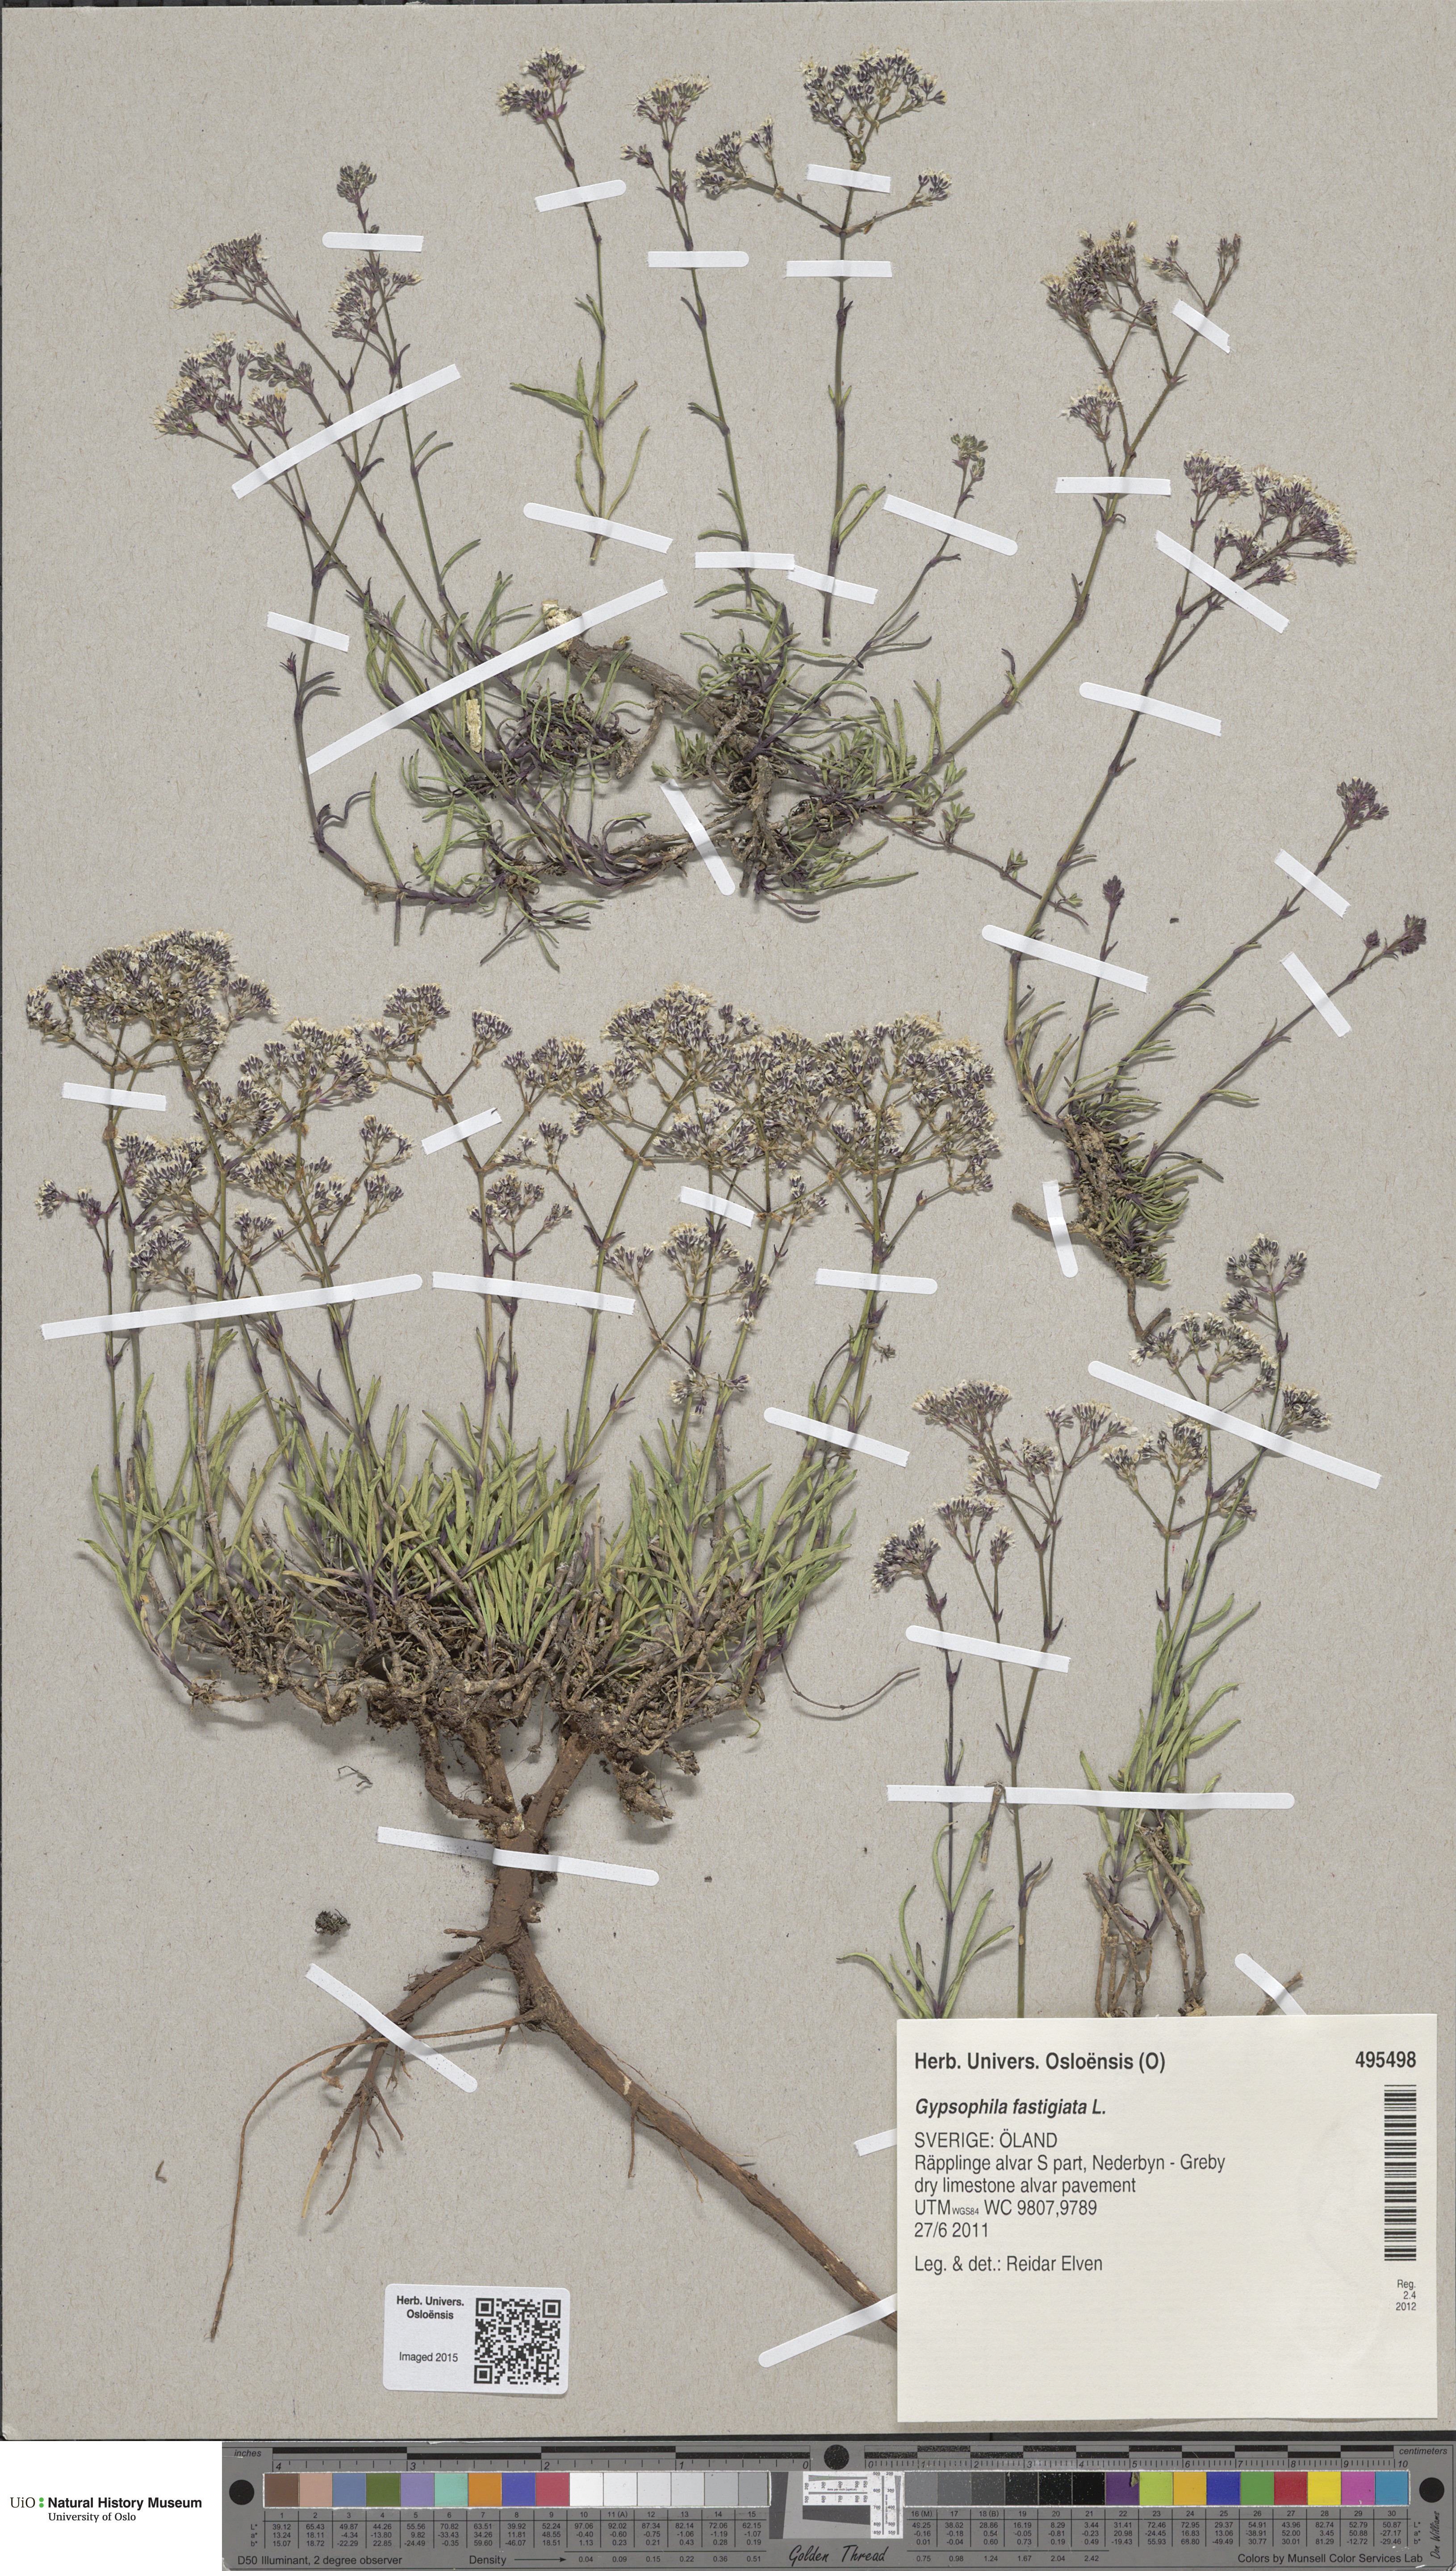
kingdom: Plantae
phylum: Tracheophyta
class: Magnoliopsida
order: Caryophyllales
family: Caryophyllaceae
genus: Gypsophila
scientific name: Gypsophila fastigiata
